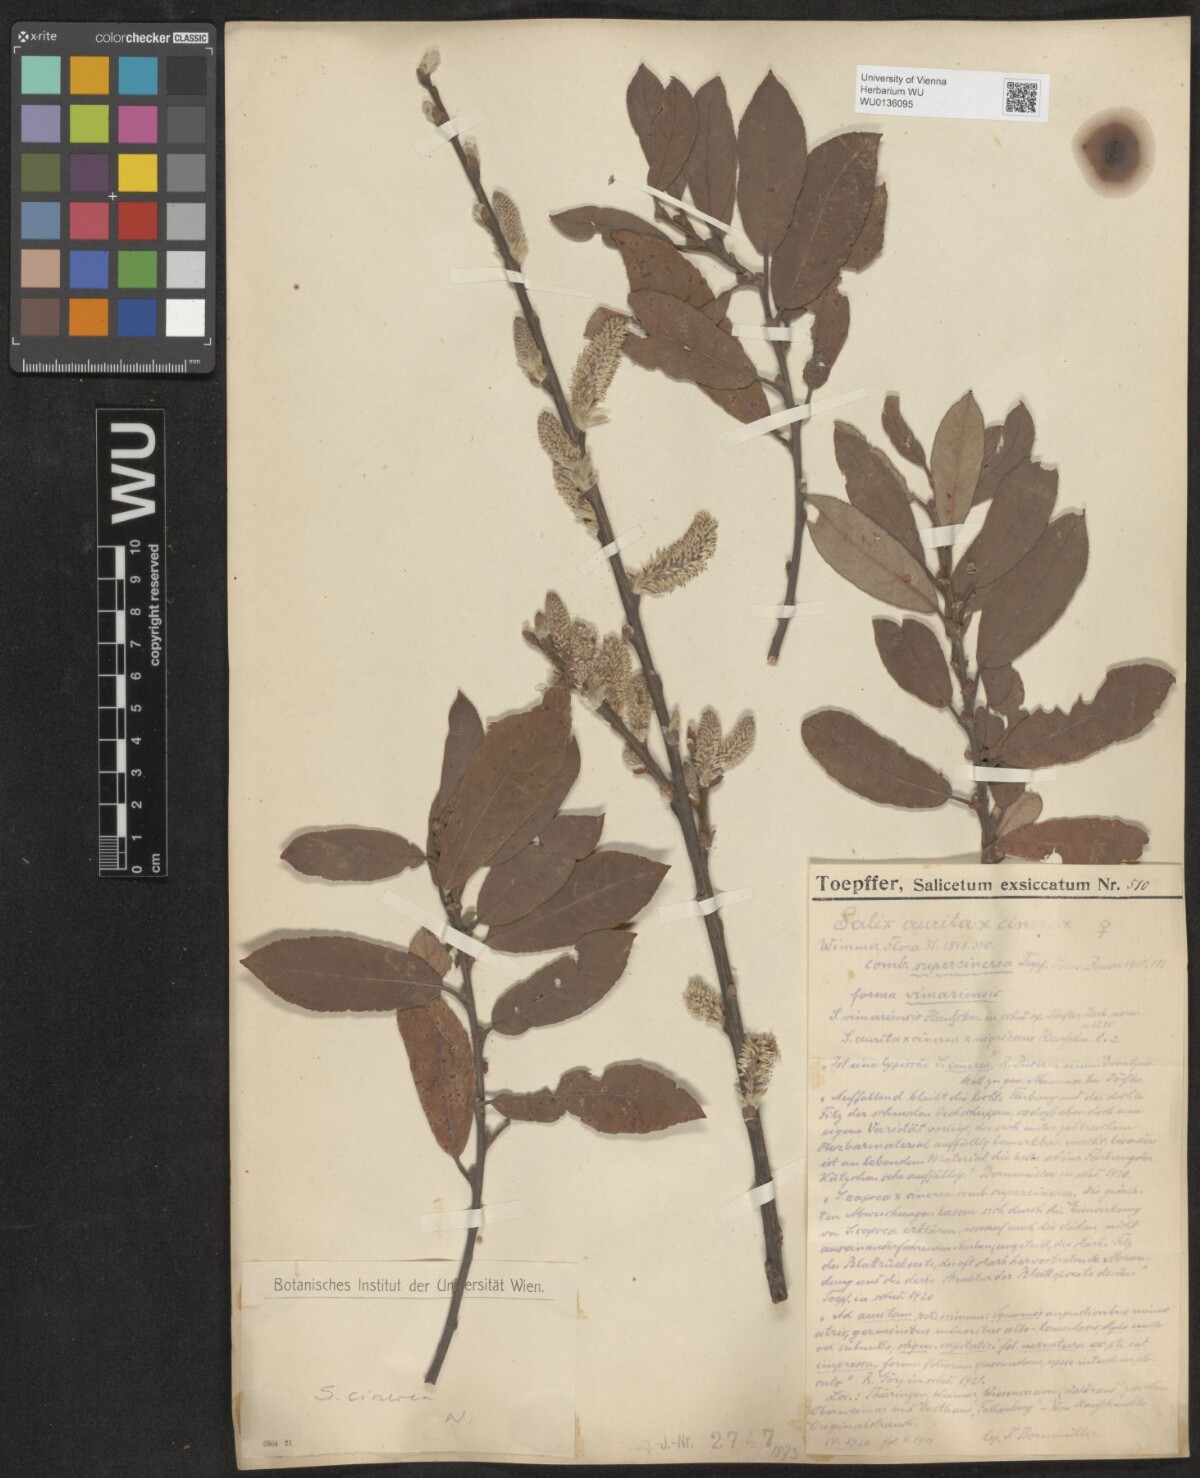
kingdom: Plantae
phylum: Tracheophyta
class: Magnoliopsida
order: Malpighiales
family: Salicaceae
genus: Salix
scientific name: Salix cinerea
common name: Common sallow
